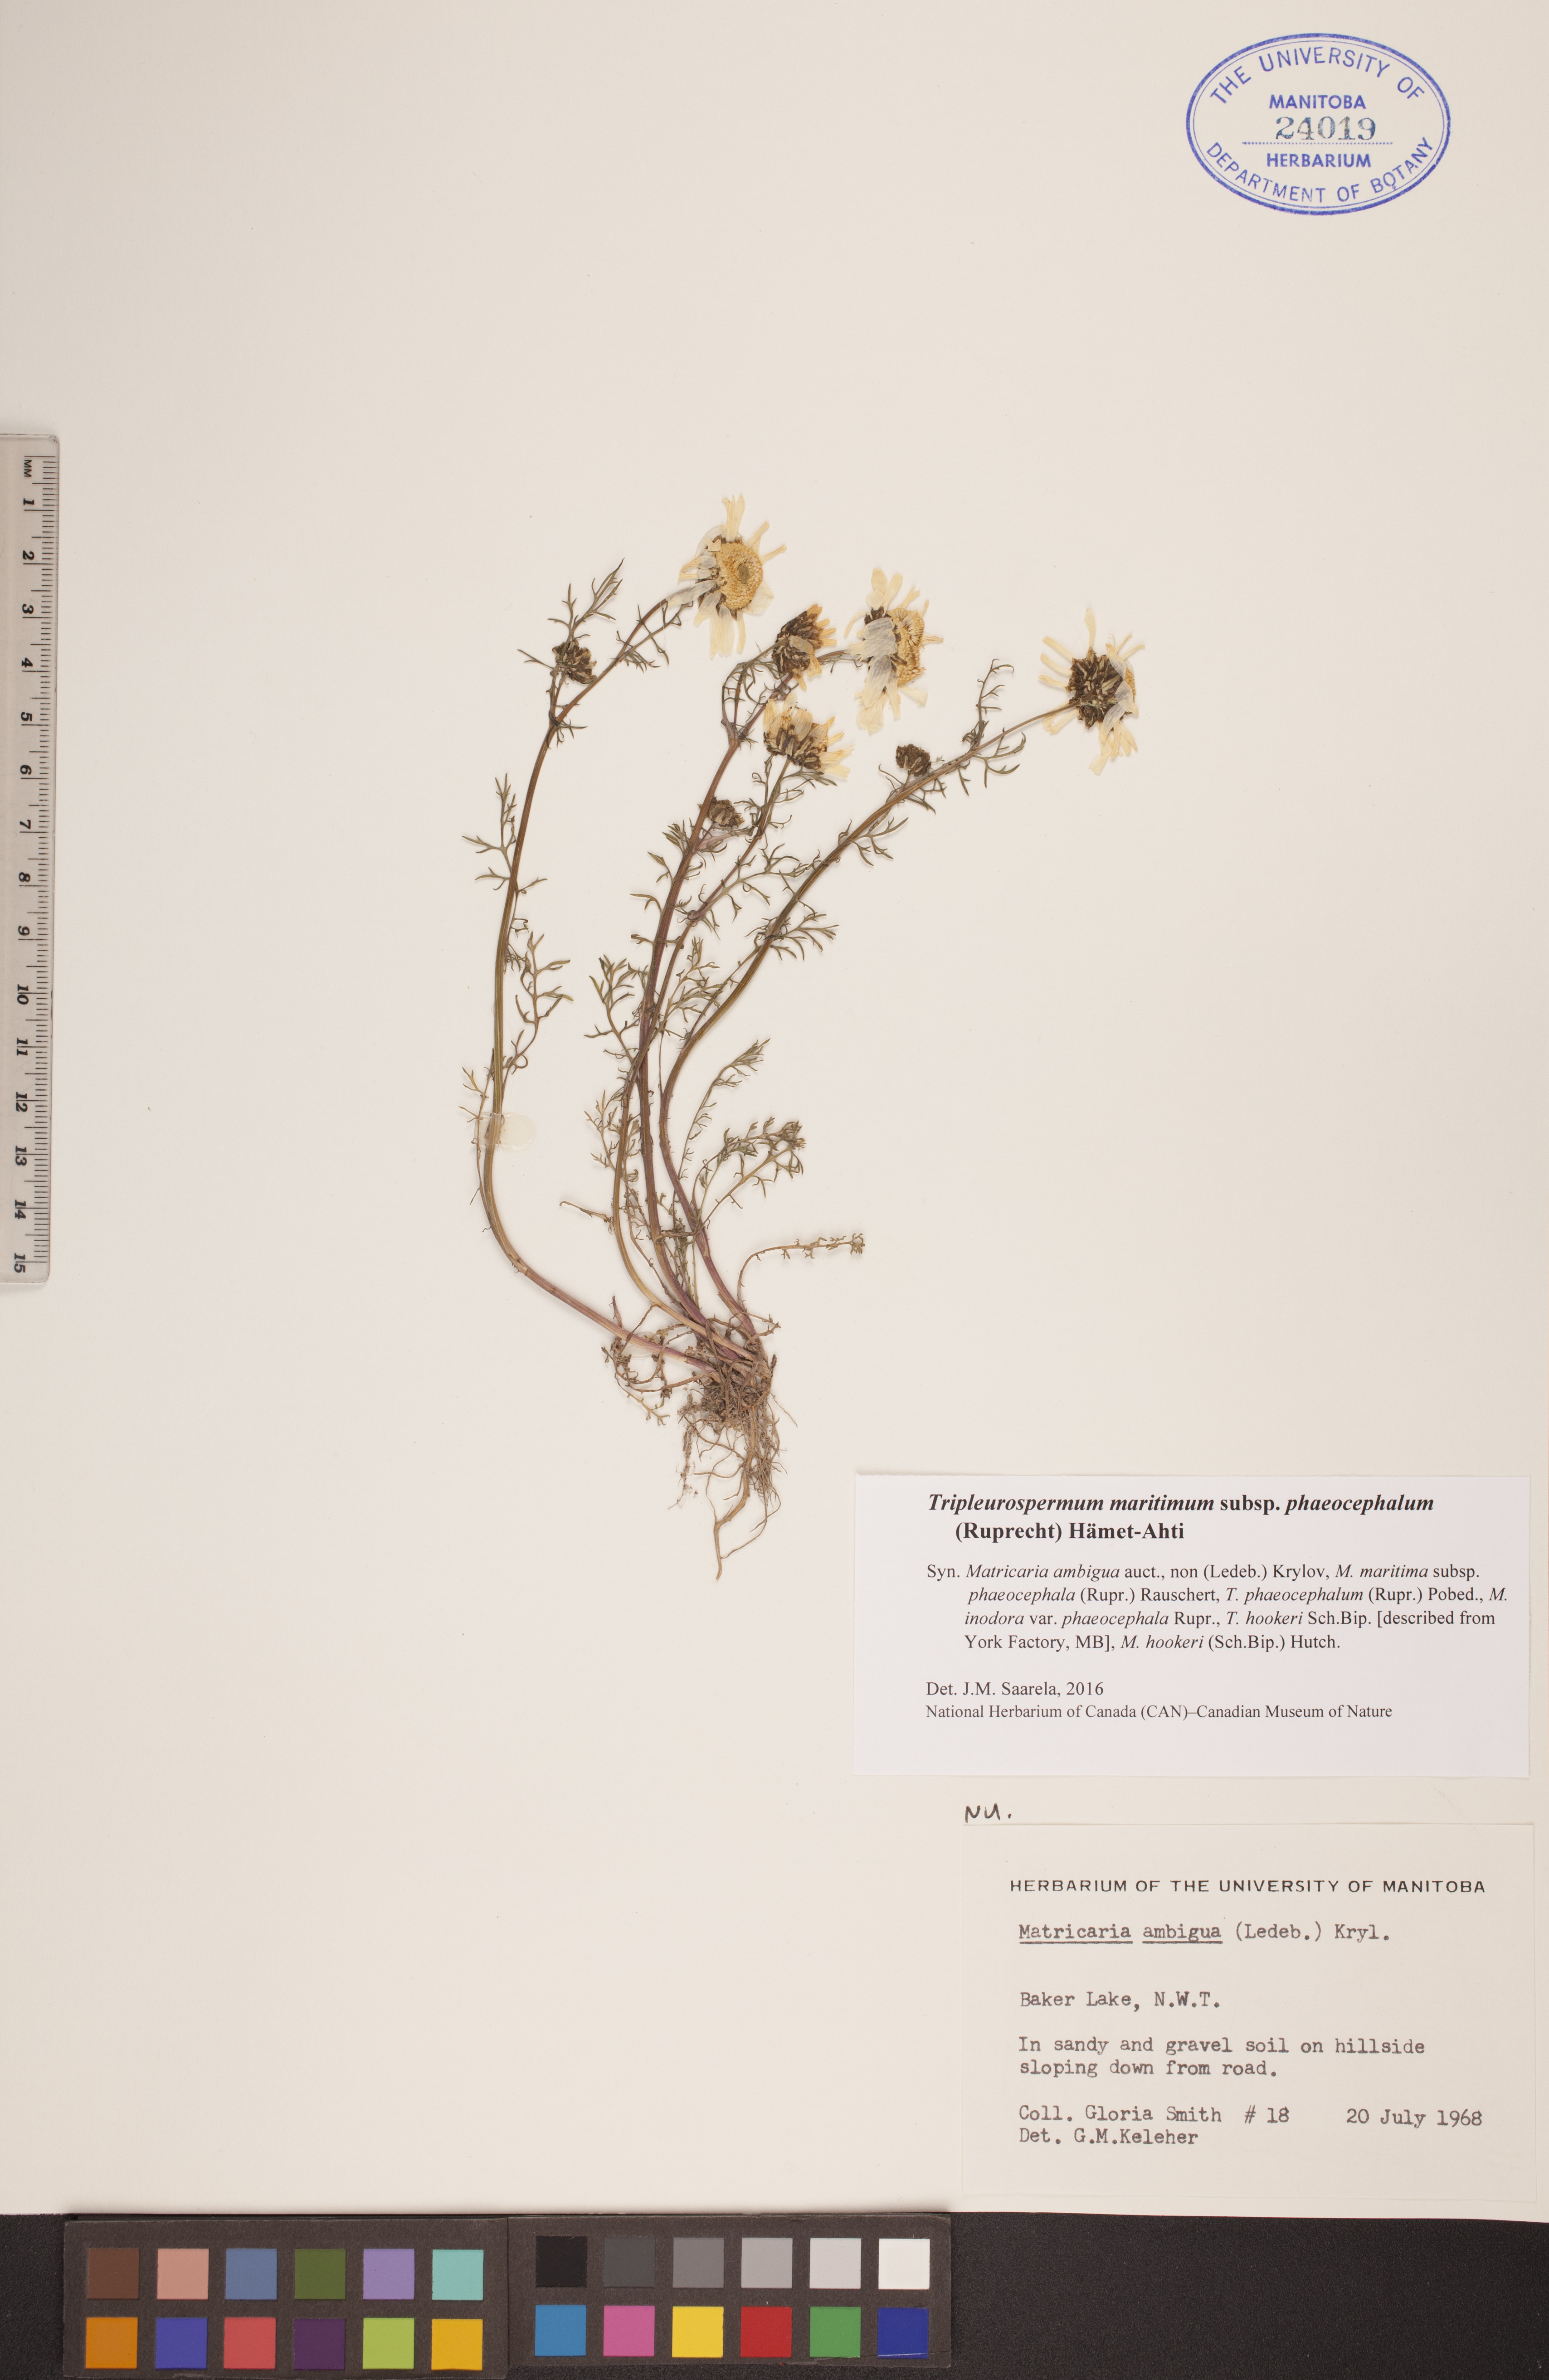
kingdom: Plantae
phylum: Tracheophyta
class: Magnoliopsida
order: Asterales
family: Asteraceae
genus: Tripleurospermum
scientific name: Tripleurospermum hookeri
